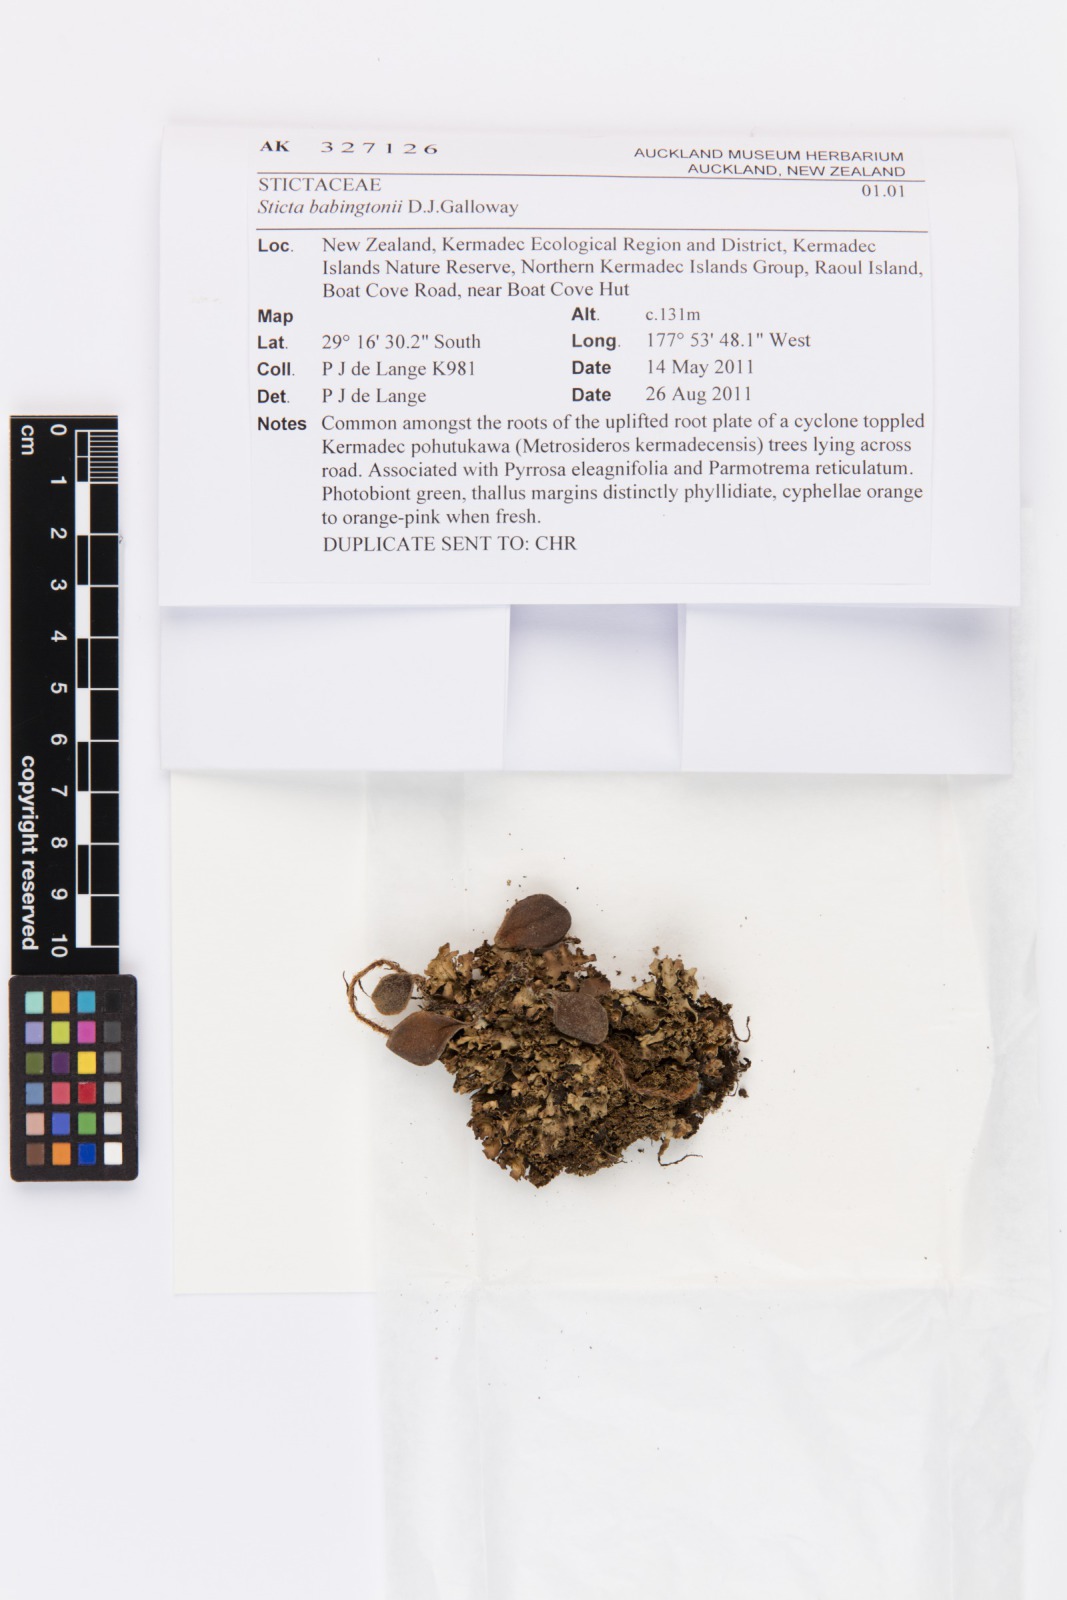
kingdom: Fungi
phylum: Ascomycota
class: Lecanoromycetes
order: Peltigerales
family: Lobariaceae
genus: Sticta
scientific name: Sticta babingtonii
